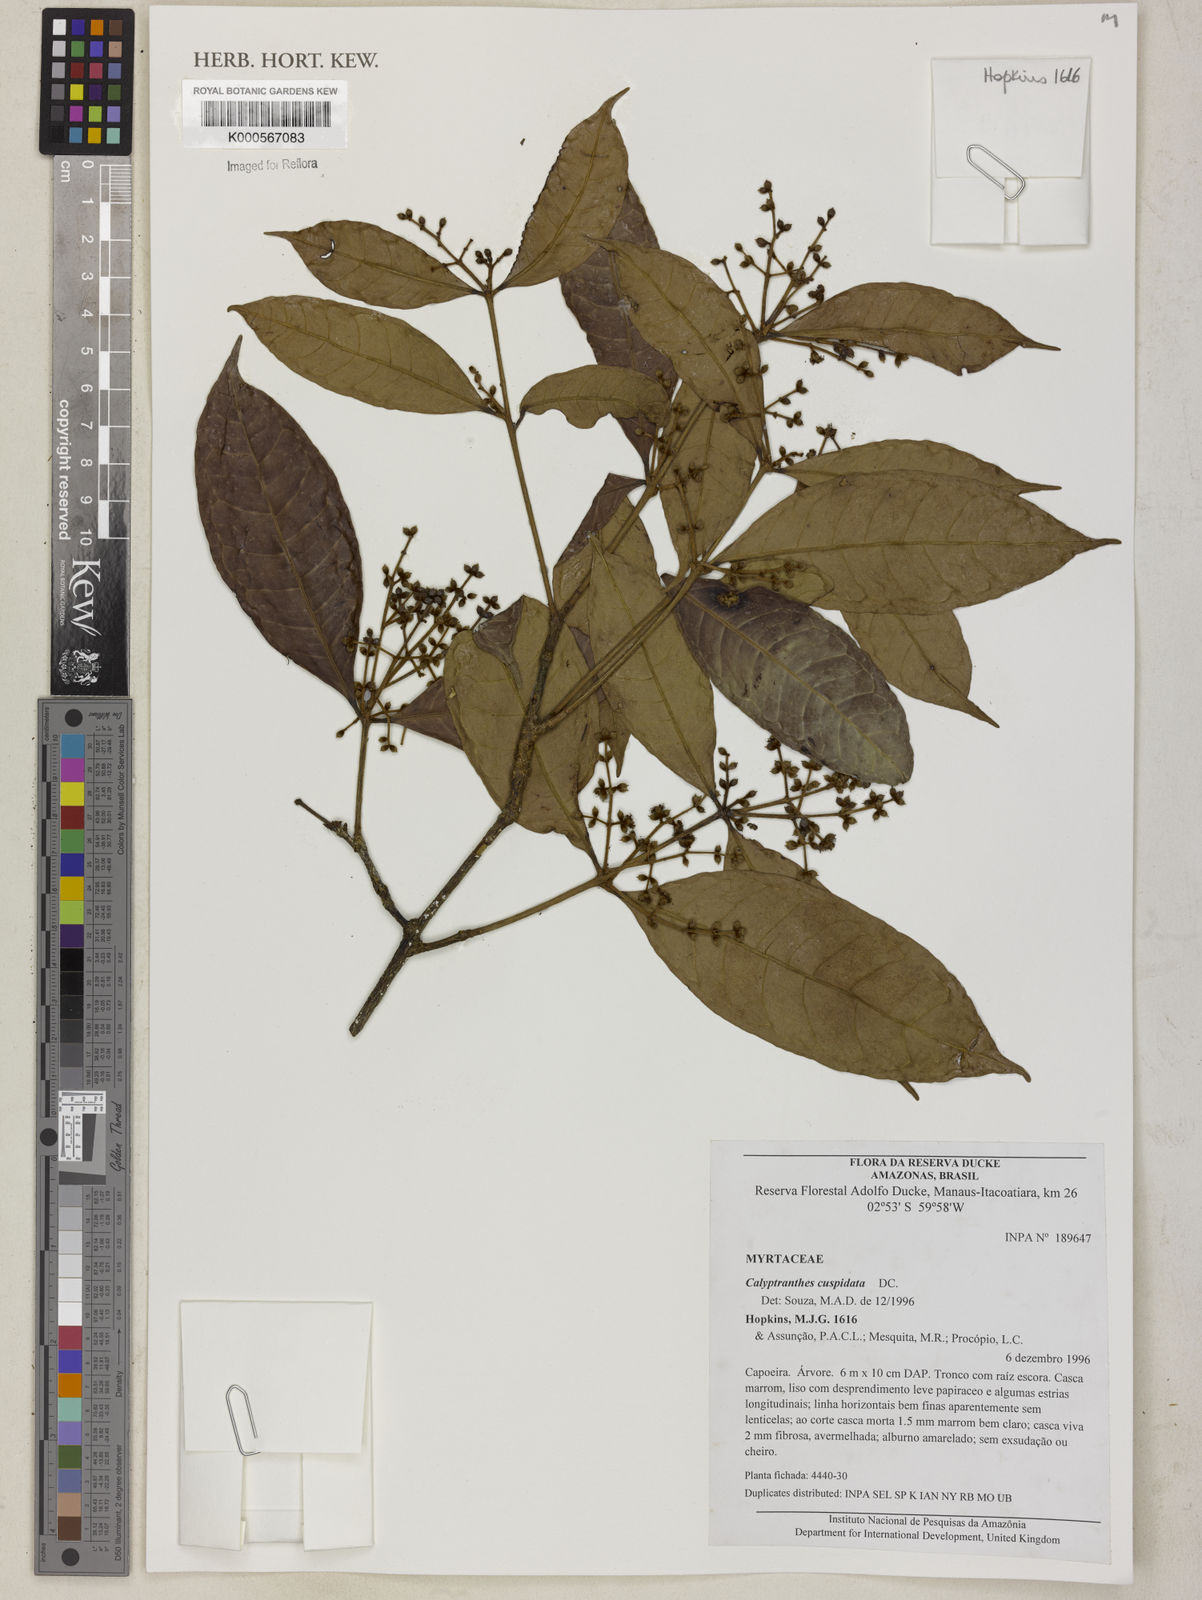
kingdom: Plantae
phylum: Tracheophyta
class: Magnoliopsida
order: Myrtales
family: Myrtaceae
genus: Myrcia
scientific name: Myrcia cuspidata
